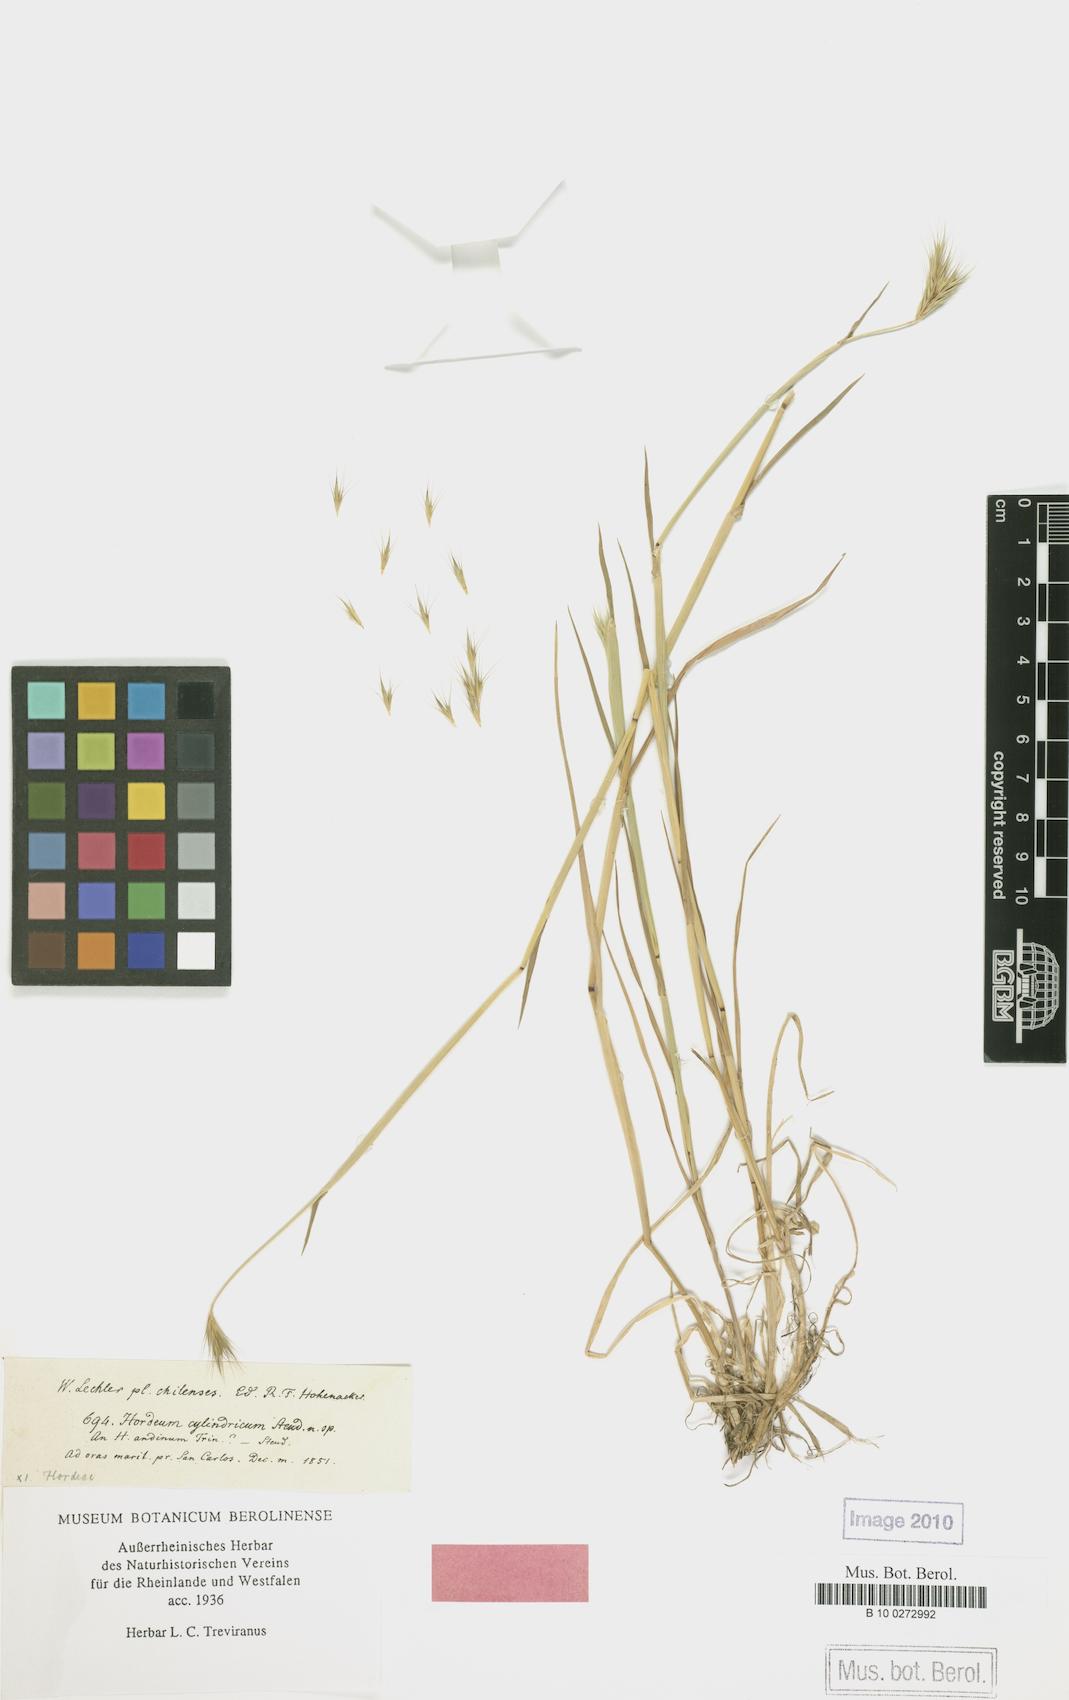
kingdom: Plantae
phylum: Tracheophyta
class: Liliopsida
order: Poales
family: Poaceae
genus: Hordeum
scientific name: Hordeum chilense
